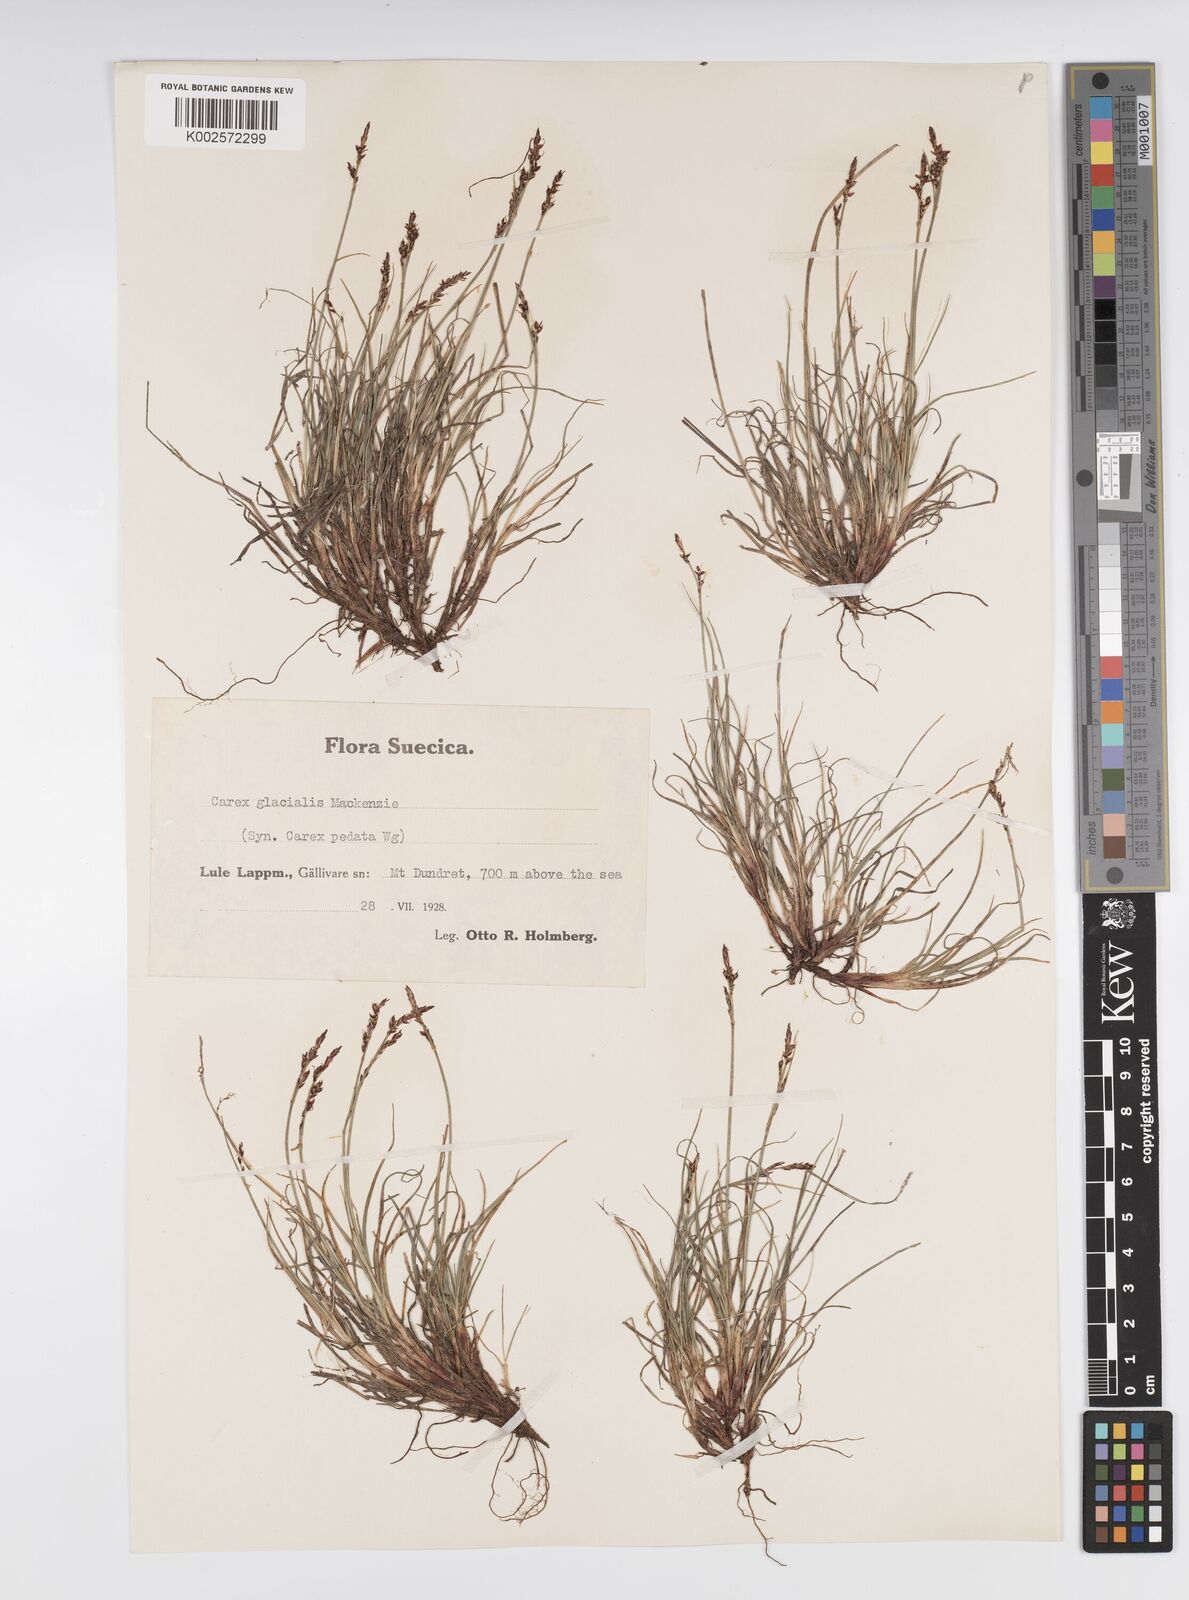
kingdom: Plantae
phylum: Tracheophyta
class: Liliopsida
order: Poales
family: Cyperaceae
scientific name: Cyperaceae
